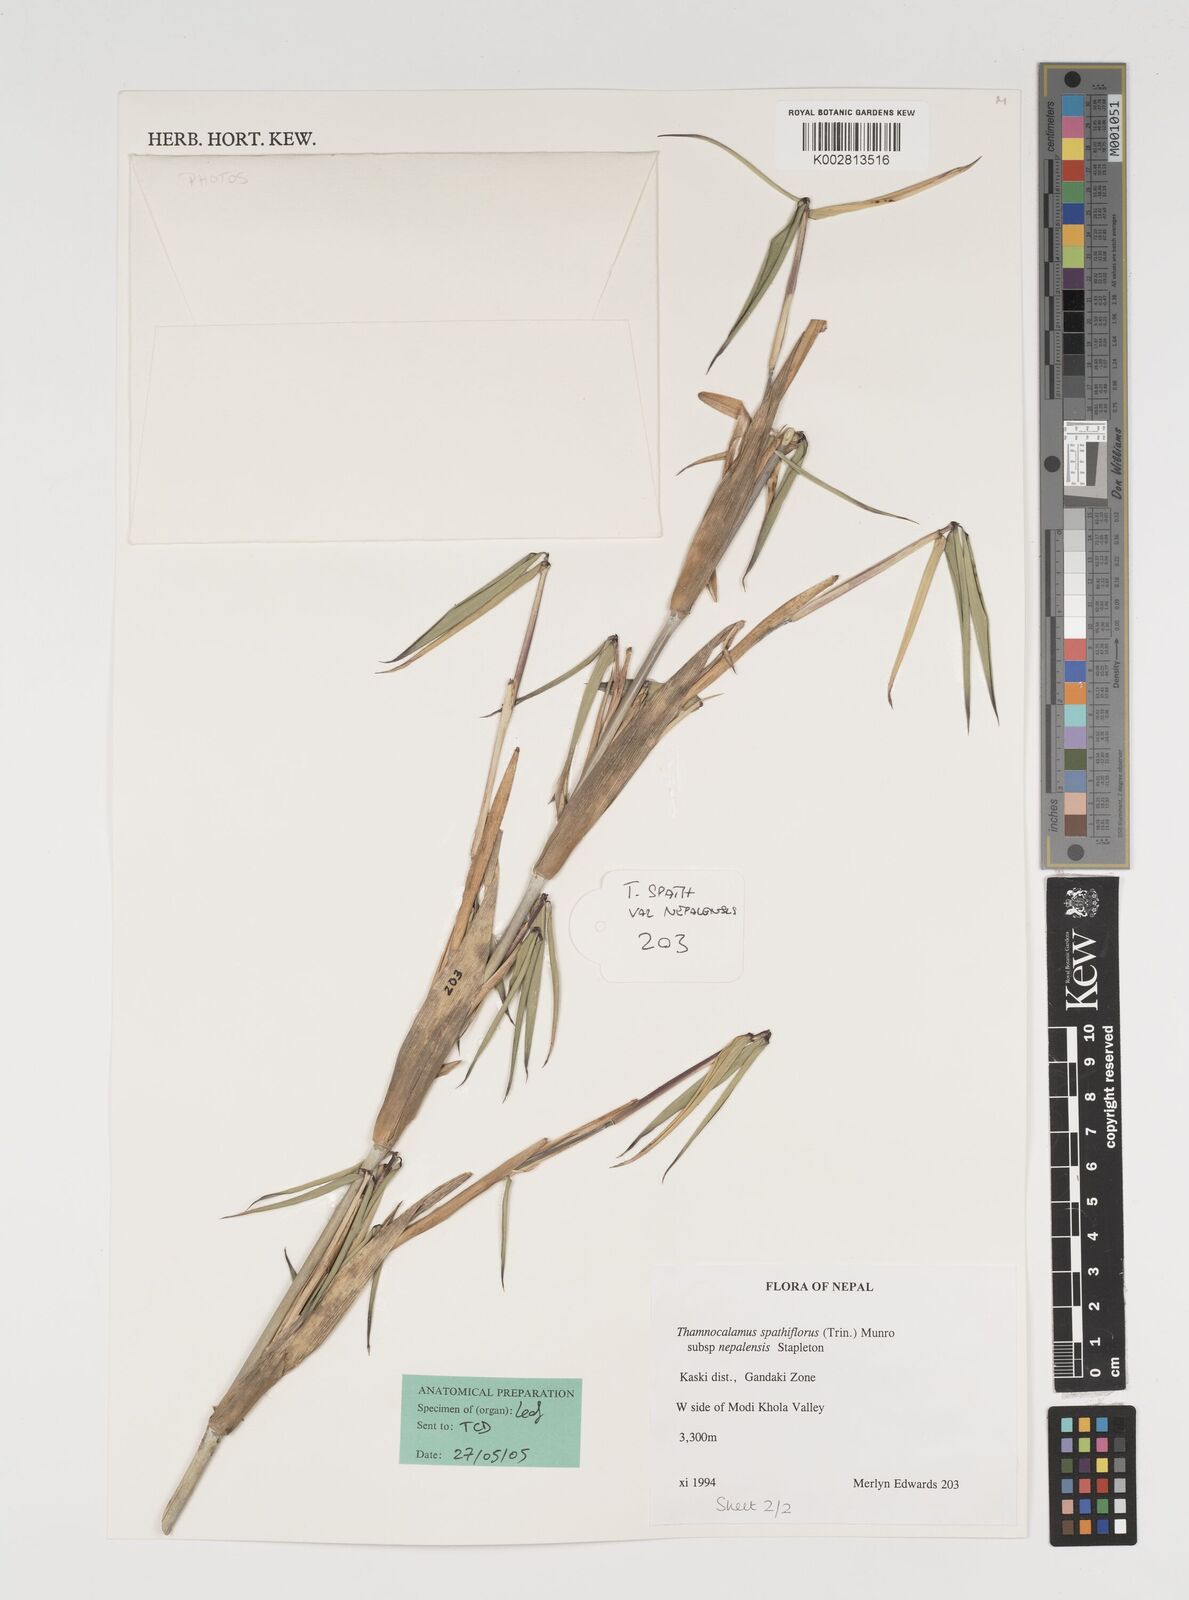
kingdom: Plantae
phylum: Tracheophyta
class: Liliopsida
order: Poales
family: Poaceae
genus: Thamnocalamus
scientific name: Thamnocalamus spathiflorus
